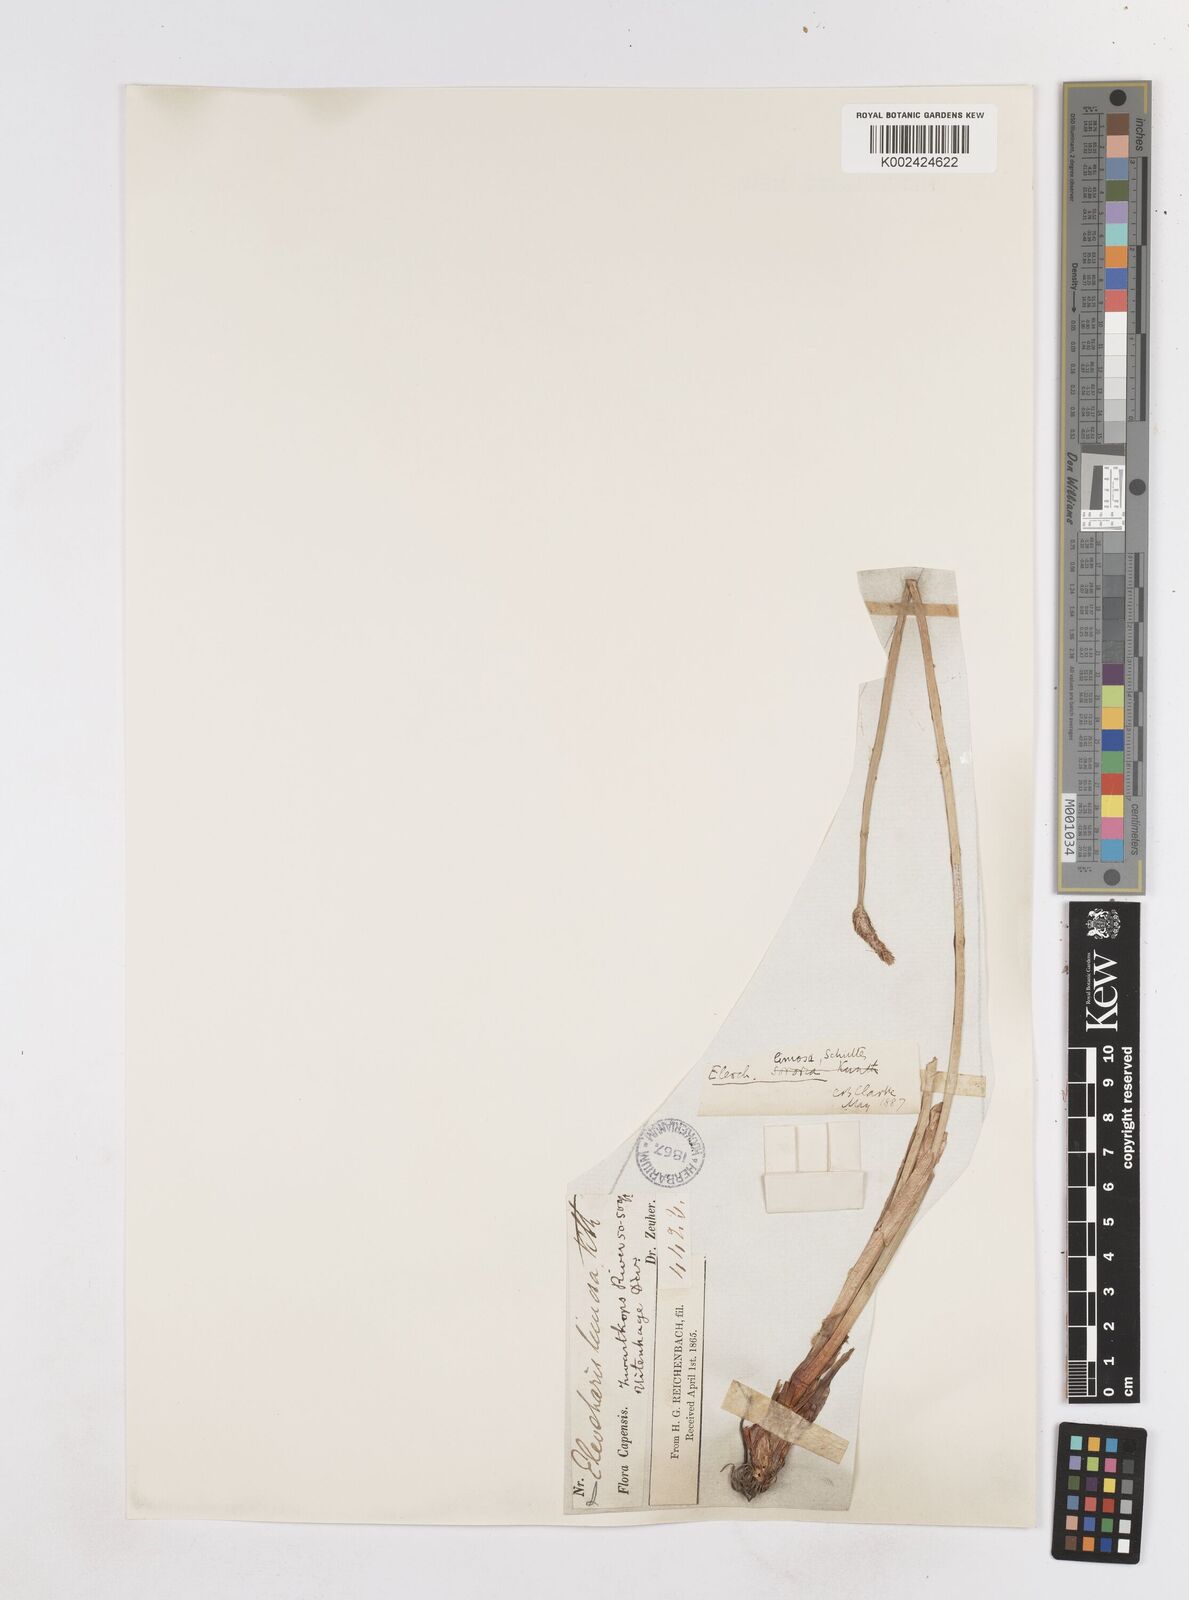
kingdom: Plantae
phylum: Tracheophyta
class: Liliopsida
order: Poales
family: Cyperaceae
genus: Eleocharis
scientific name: Eleocharis limosa
